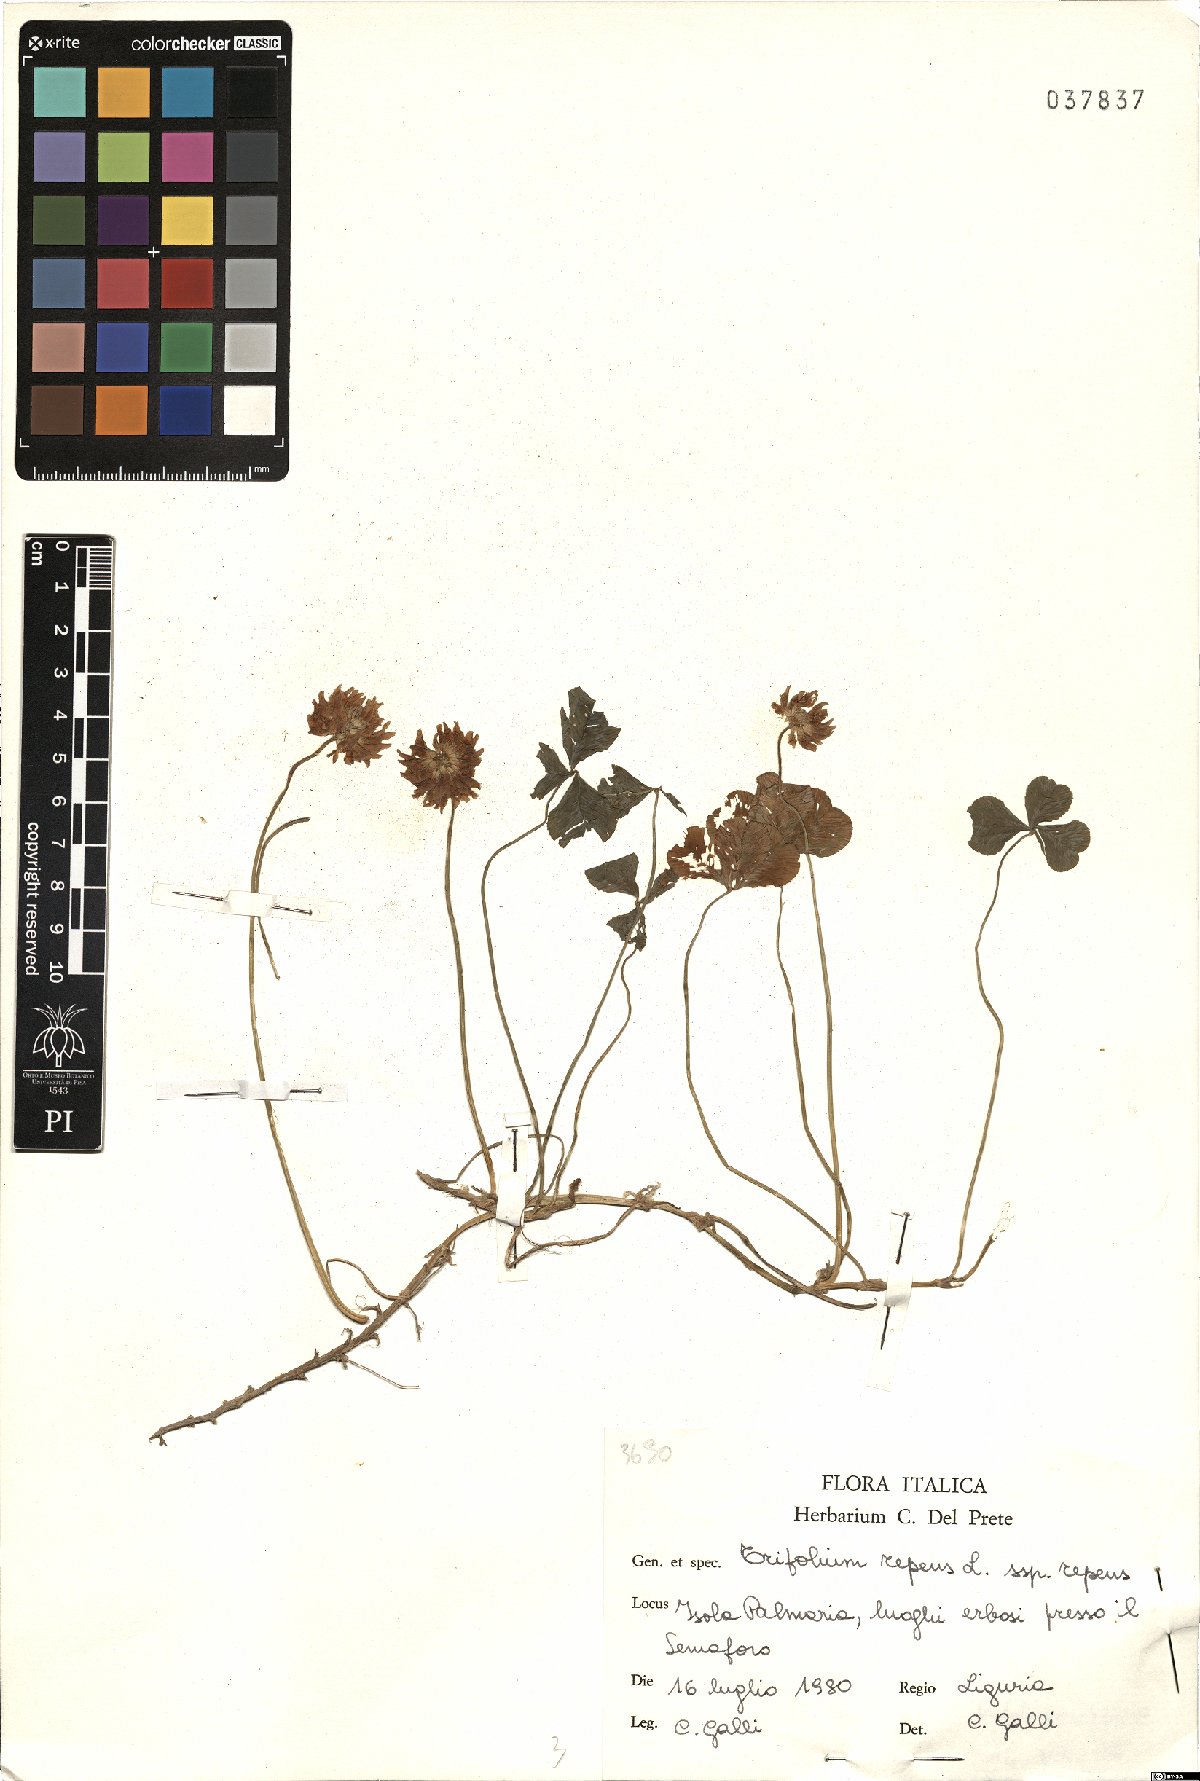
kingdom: Plantae
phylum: Tracheophyta
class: Magnoliopsida
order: Fabales
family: Fabaceae
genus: Trifolium
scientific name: Trifolium repens
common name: White clover
